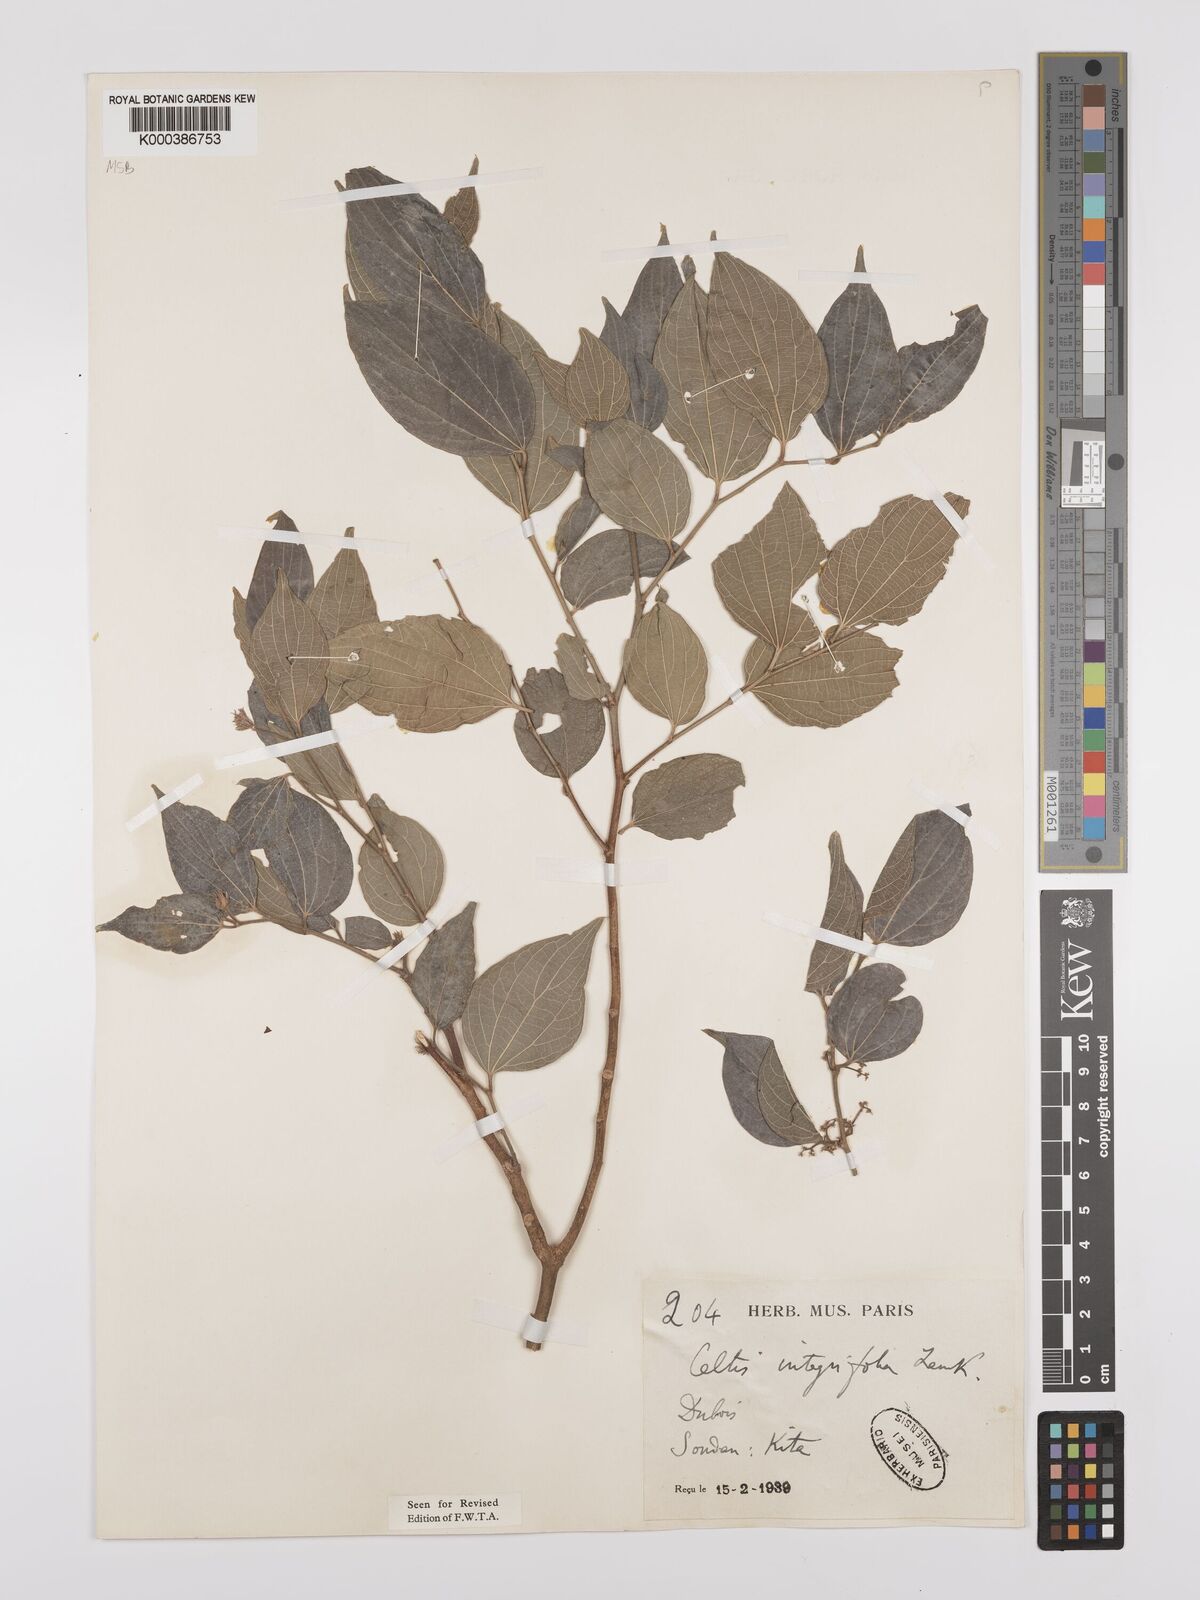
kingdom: Plantae
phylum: Tracheophyta
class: Magnoliopsida
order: Rosales
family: Cannabaceae
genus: Celtis
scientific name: Celtis toka
